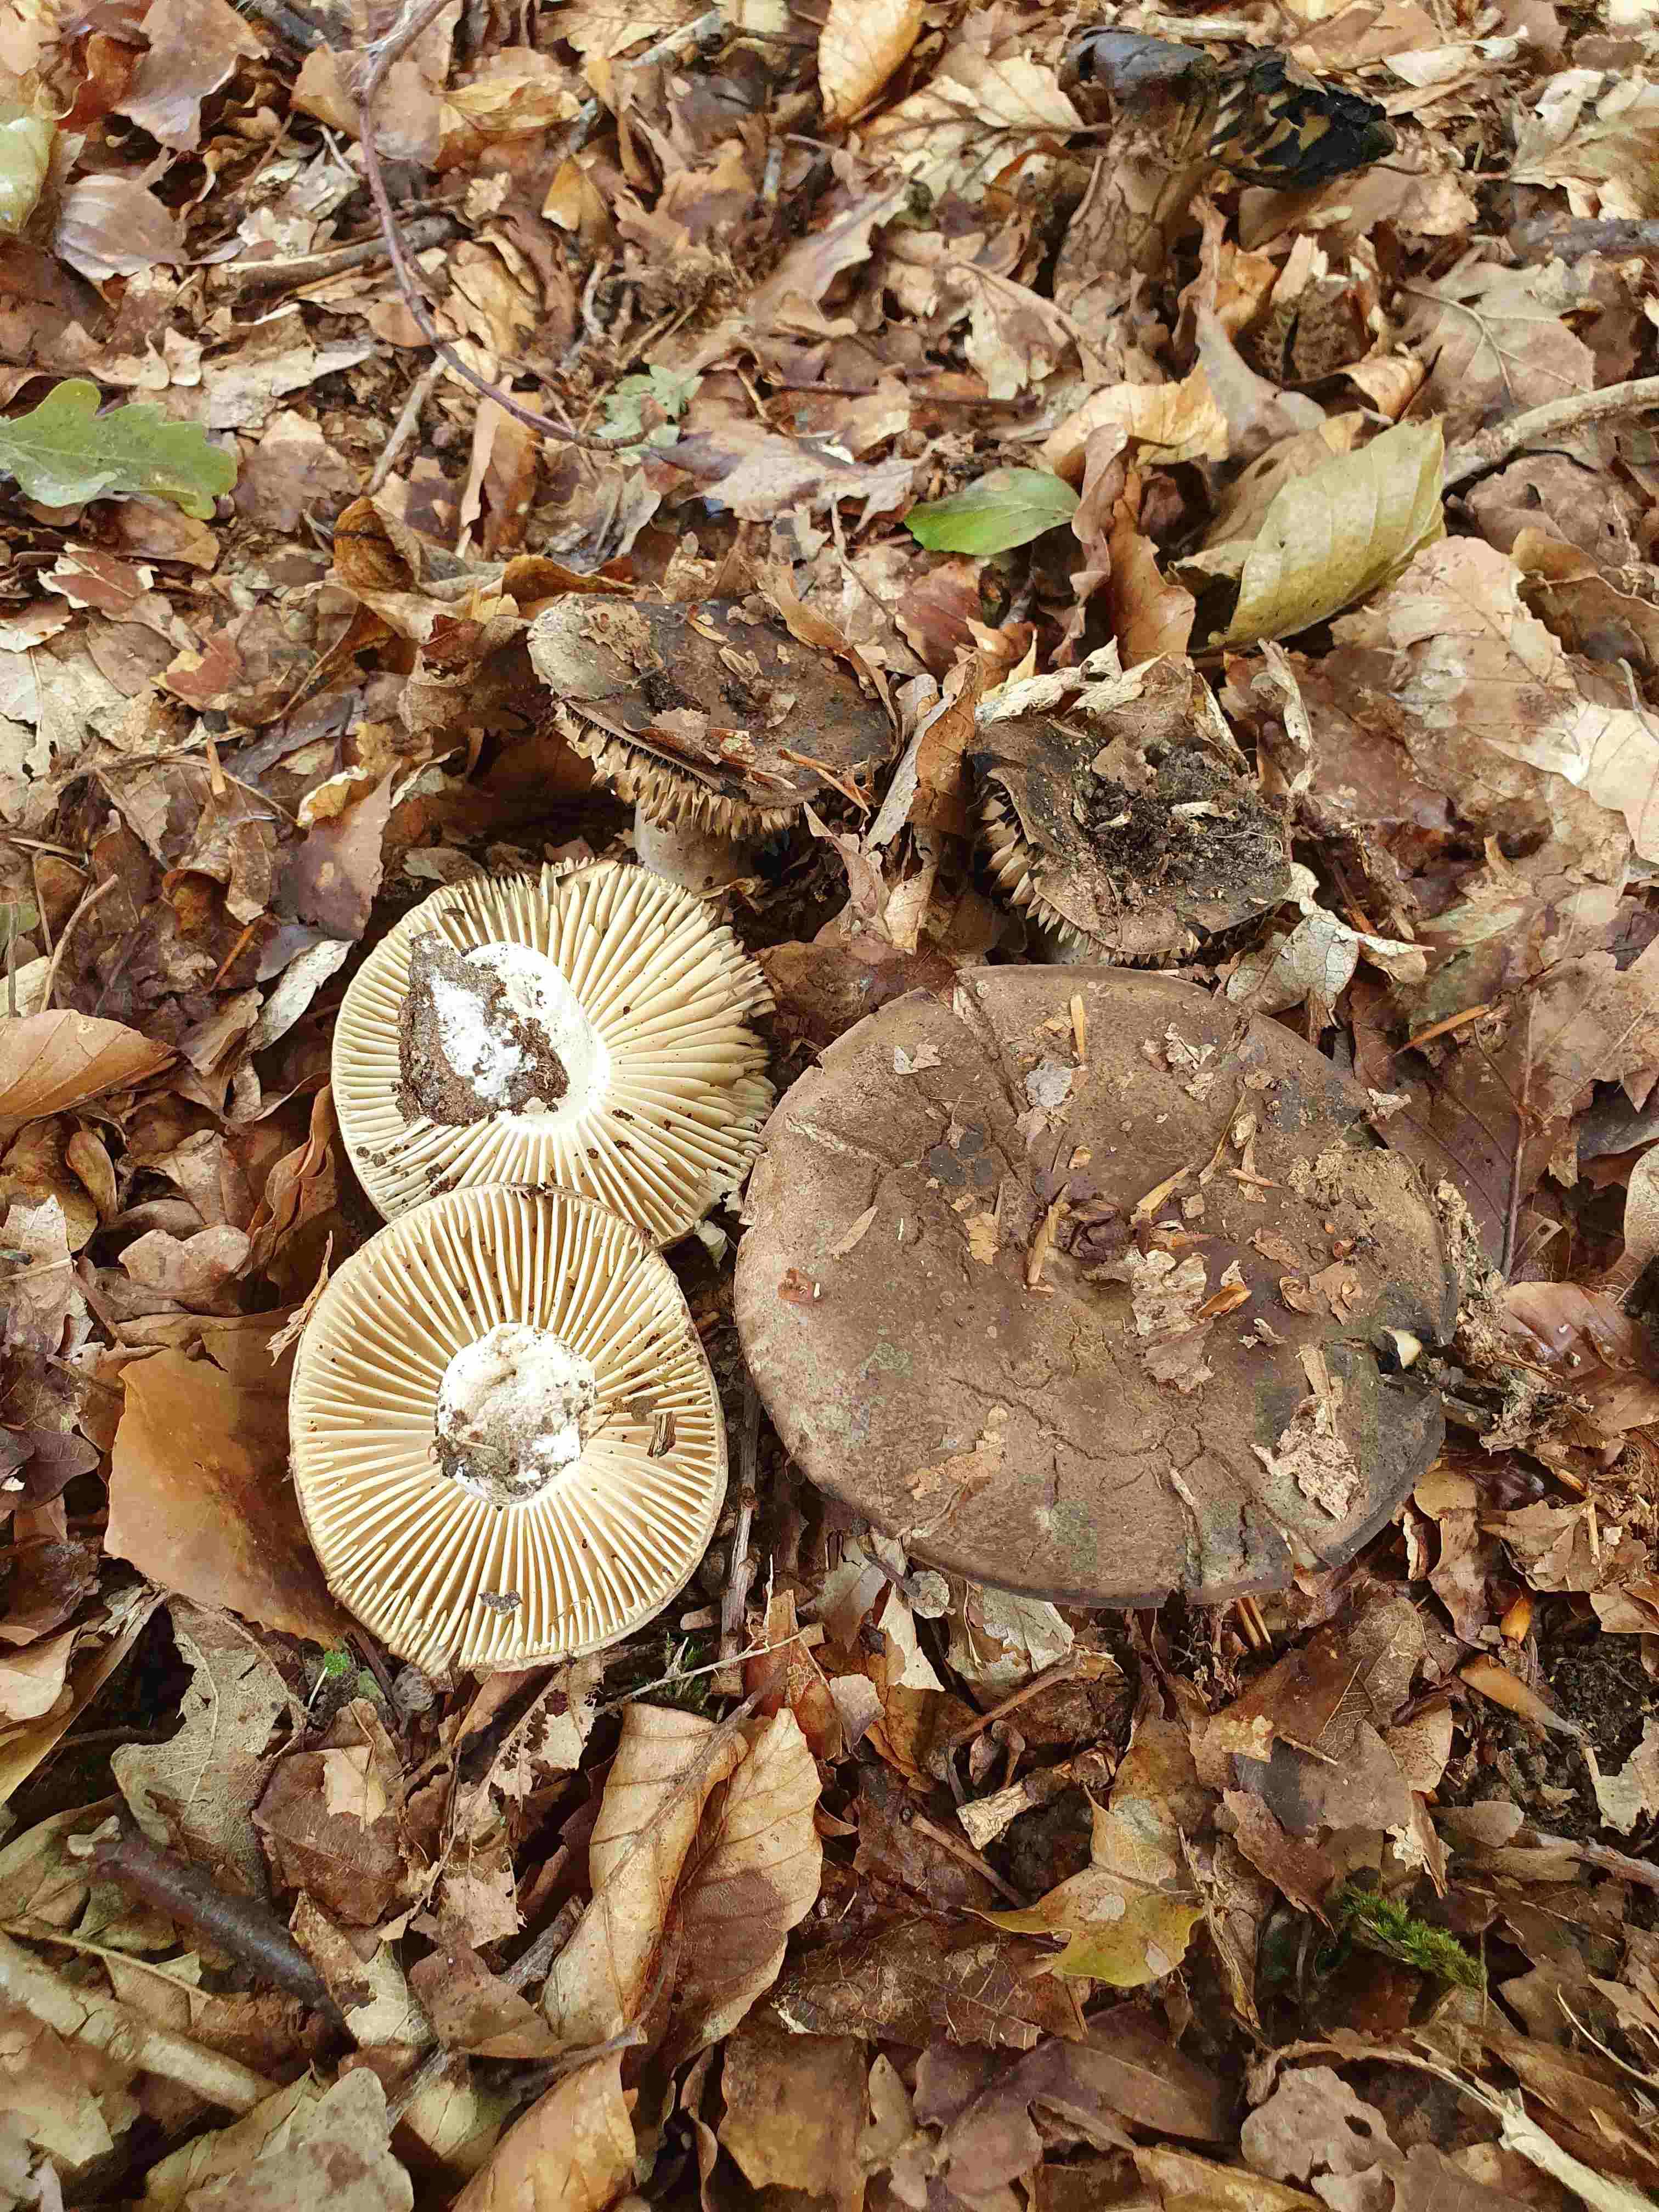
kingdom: Fungi
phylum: Basidiomycota
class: Agaricomycetes
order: Russulales
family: Russulaceae
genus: Russula
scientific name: Russula adusta
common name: sværtende skørhat
